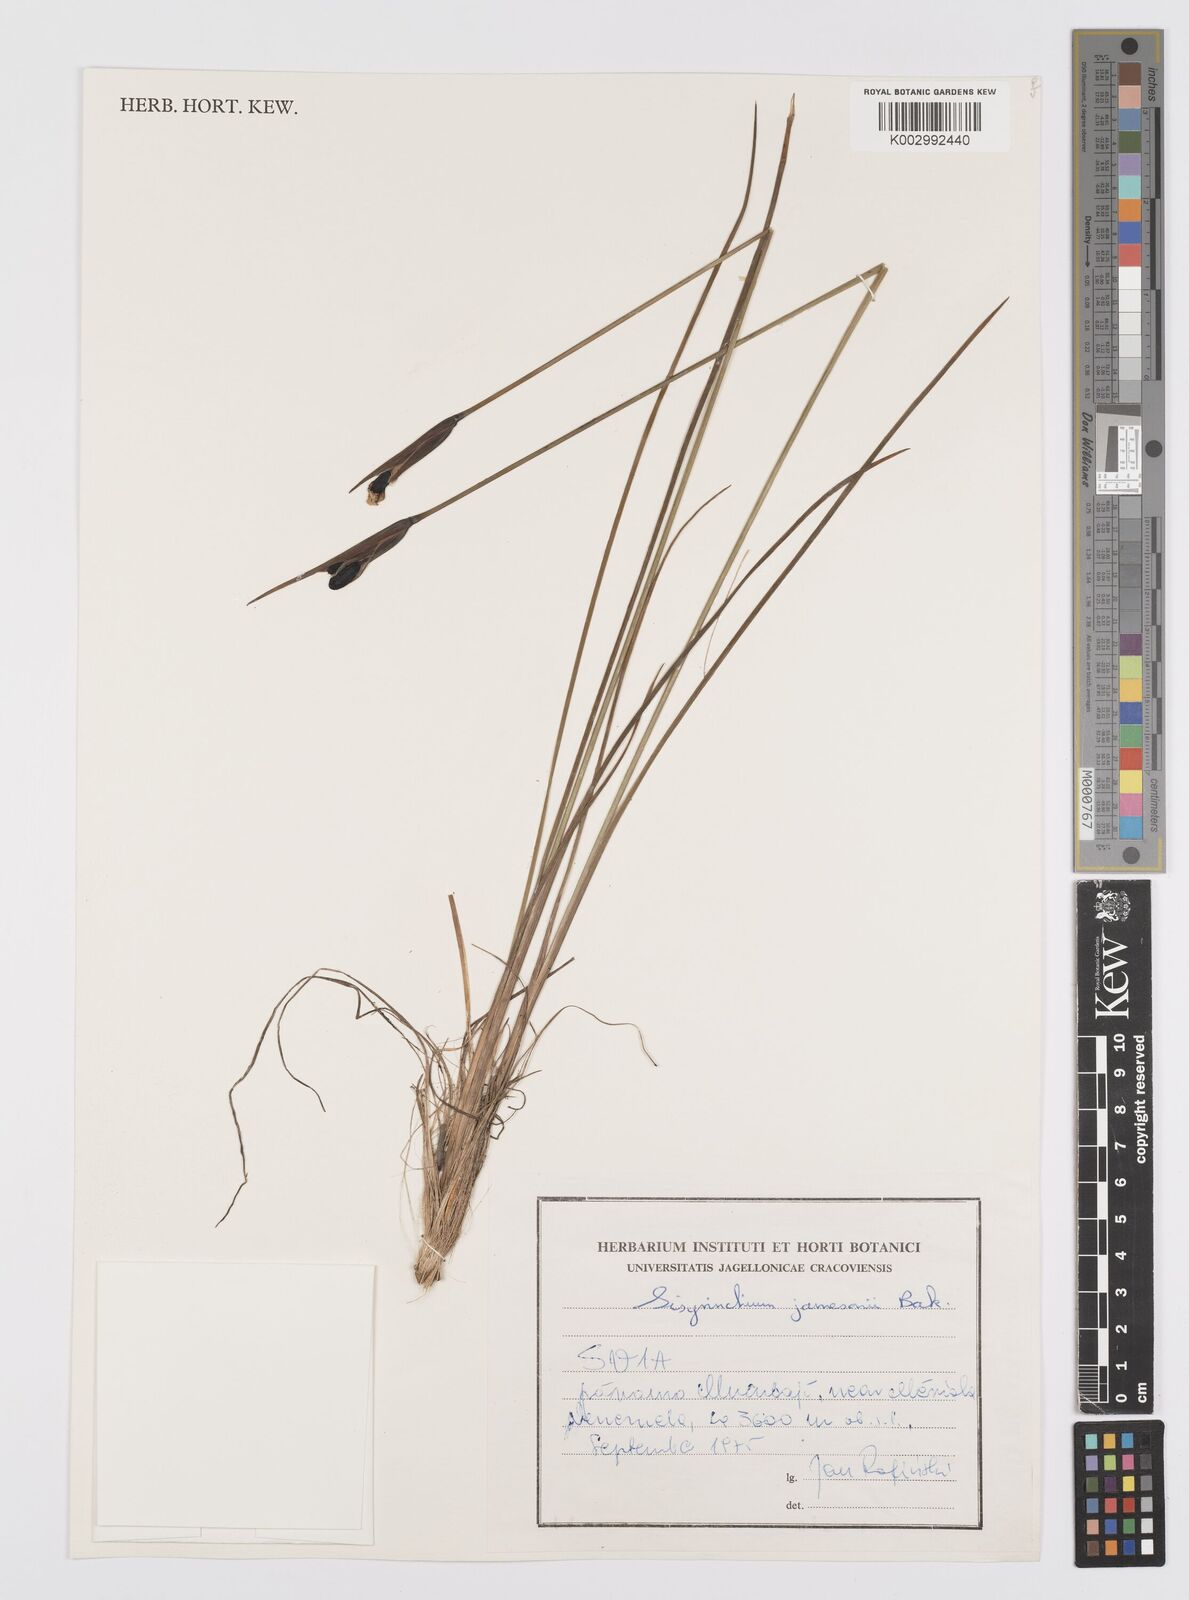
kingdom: Plantae
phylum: Tracheophyta
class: Liliopsida
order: Asparagales
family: Iridaceae
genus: Sisyrinchium
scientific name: Sisyrinchium jamesonii
